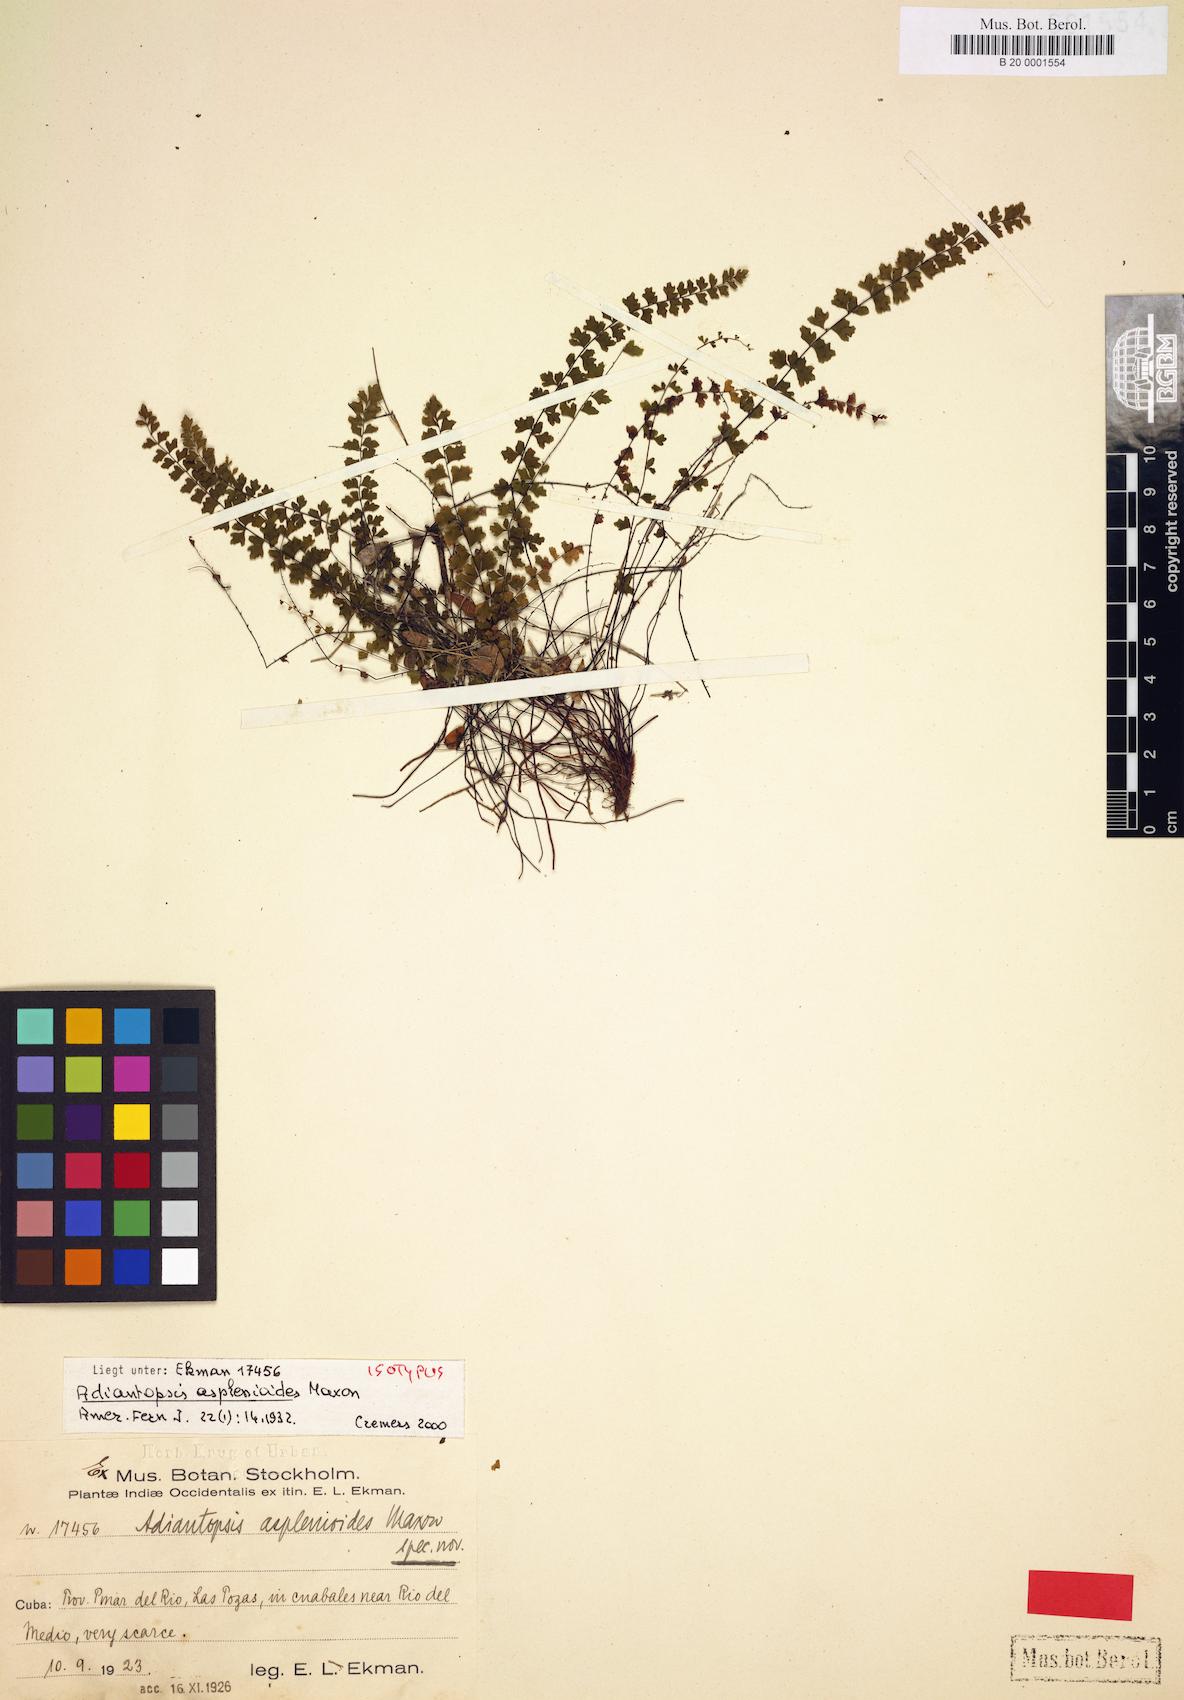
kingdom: Plantae
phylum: Tracheophyta
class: Polypodiopsida
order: Polypodiales
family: Pteridaceae
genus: Adiantopsis
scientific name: Adiantopsis asplenioides
